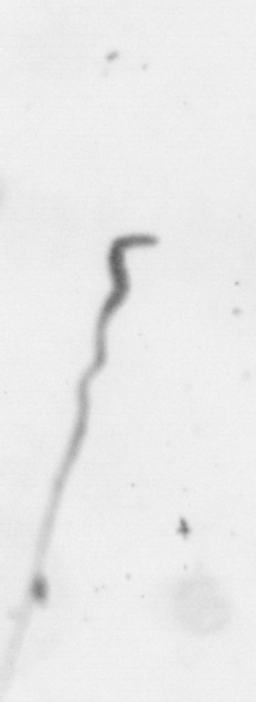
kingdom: Chromista
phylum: Ochrophyta
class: Bacillariophyceae
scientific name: Bacillariophyceae
